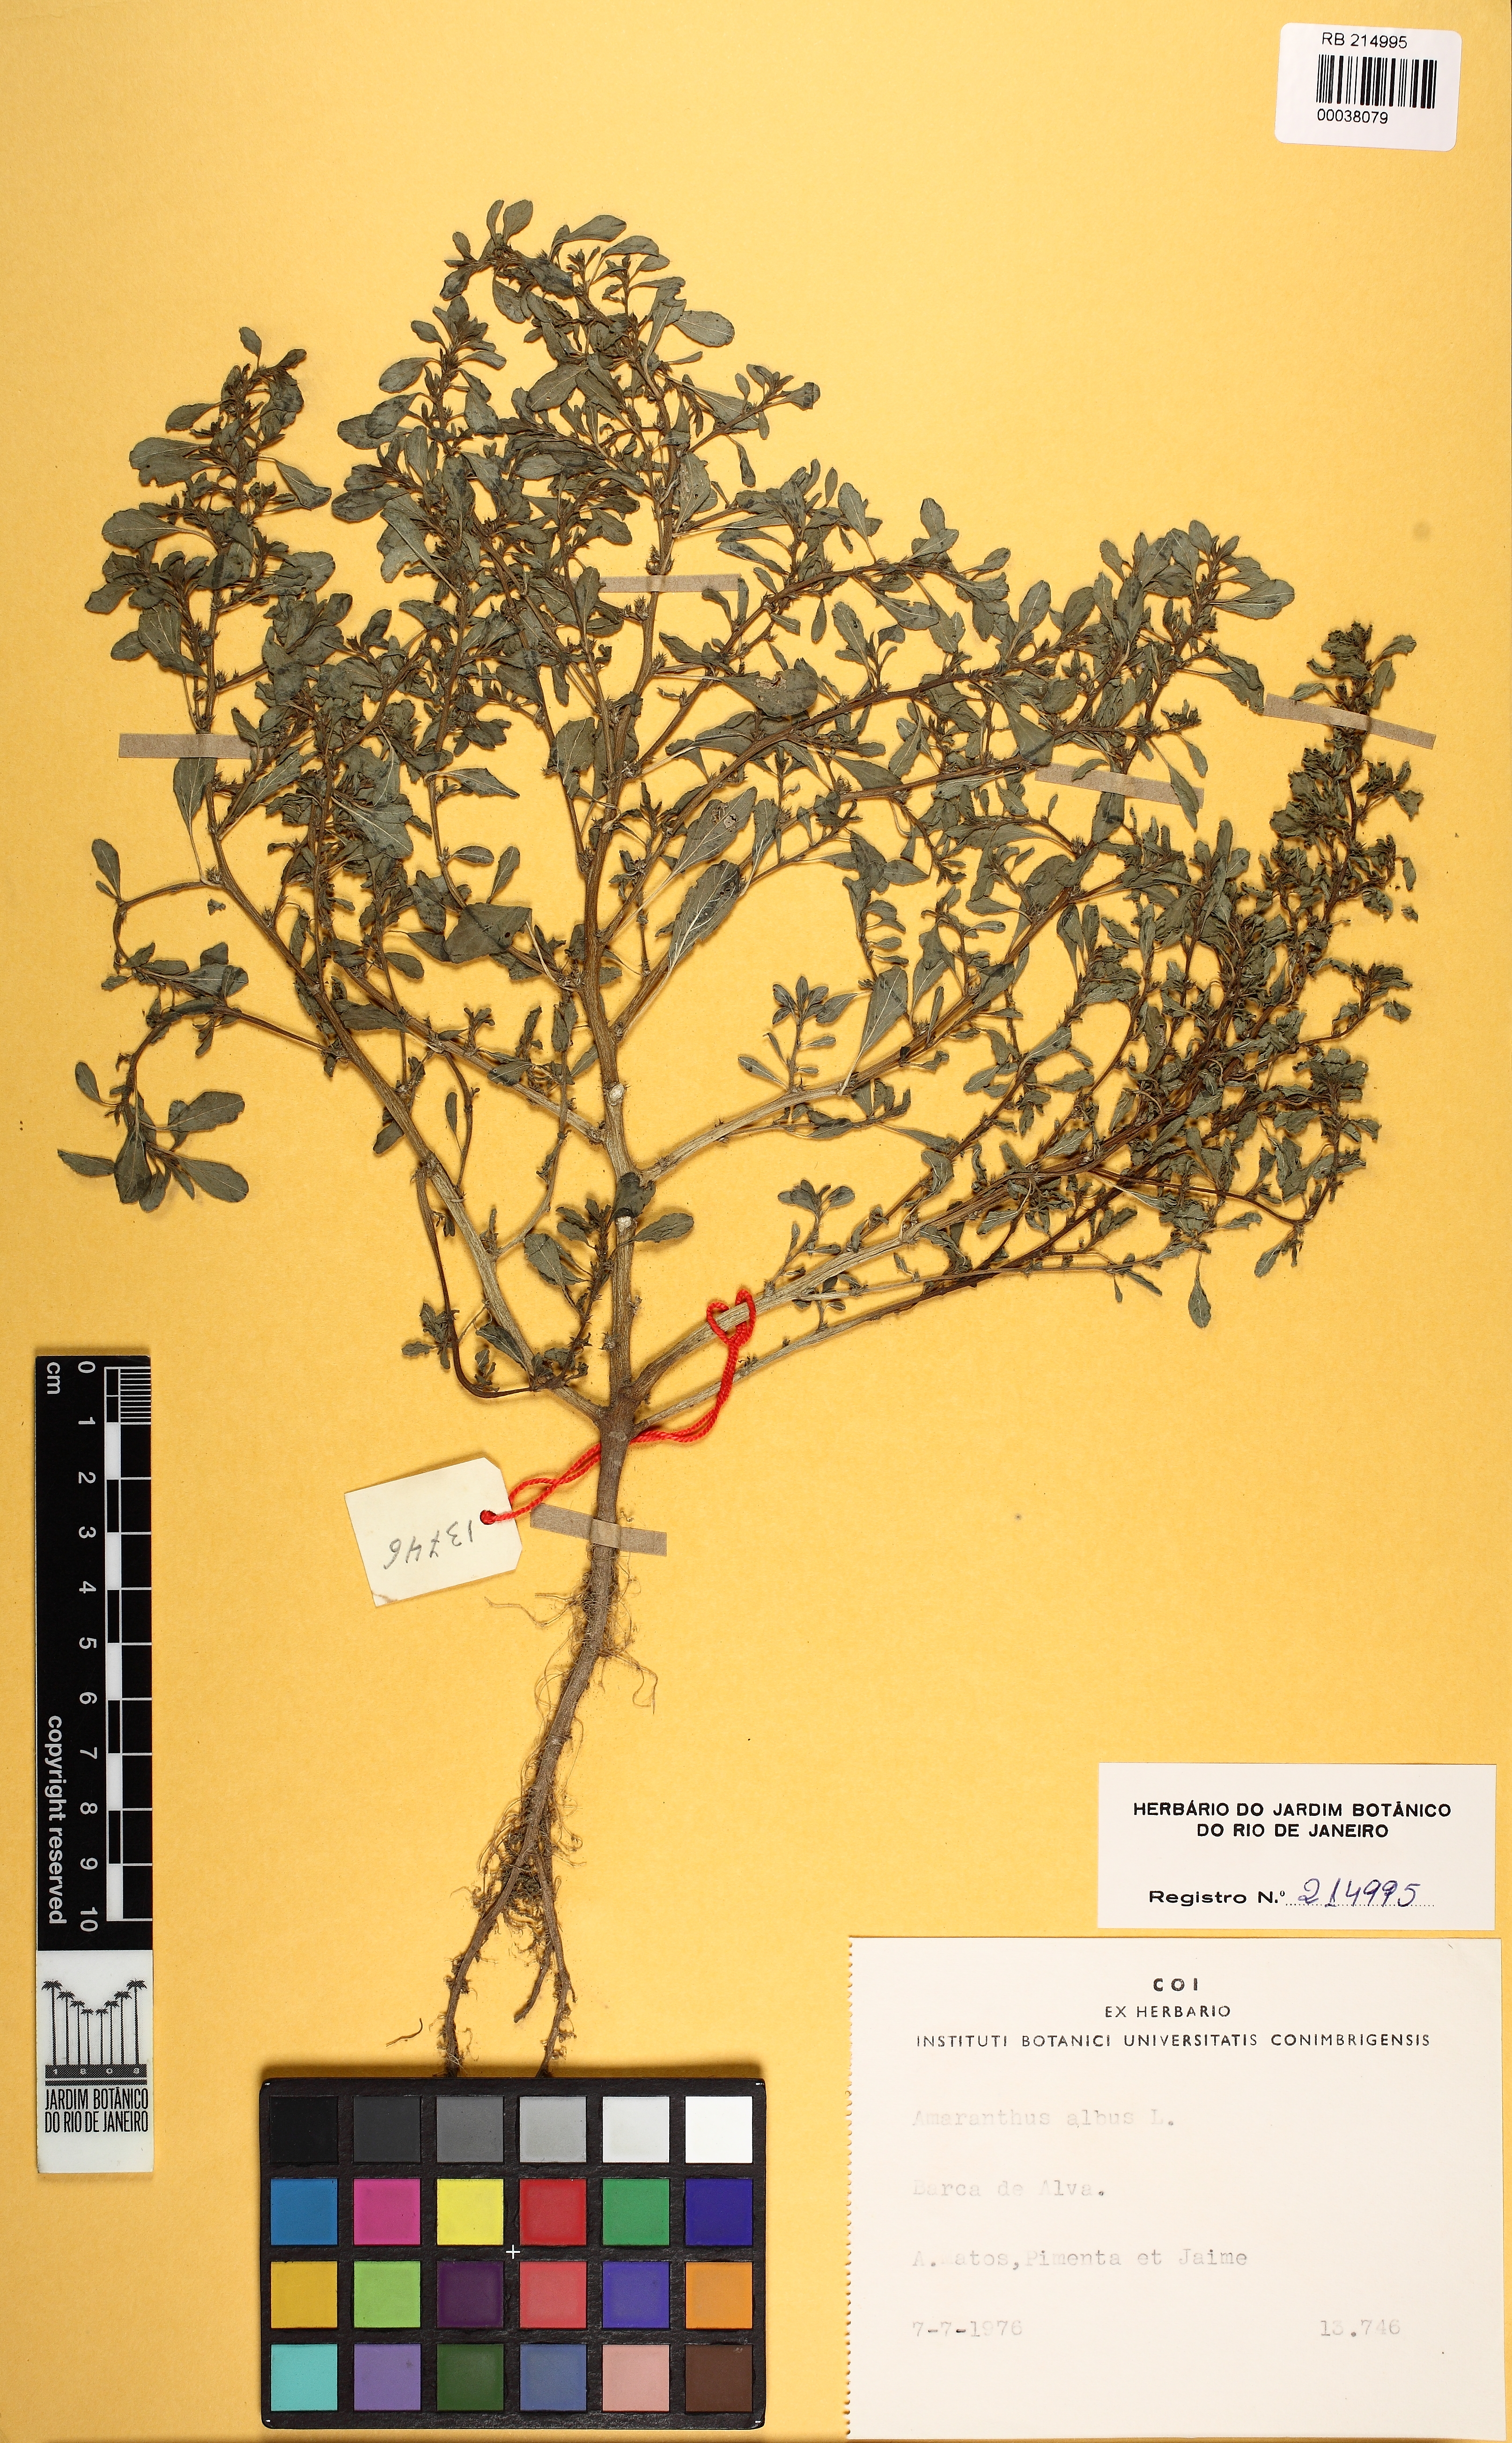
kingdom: Plantae
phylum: Tracheophyta
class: Magnoliopsida
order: Caryophyllales
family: Amaranthaceae
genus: Amaranthus
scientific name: Amaranthus albus
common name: White pigweed
